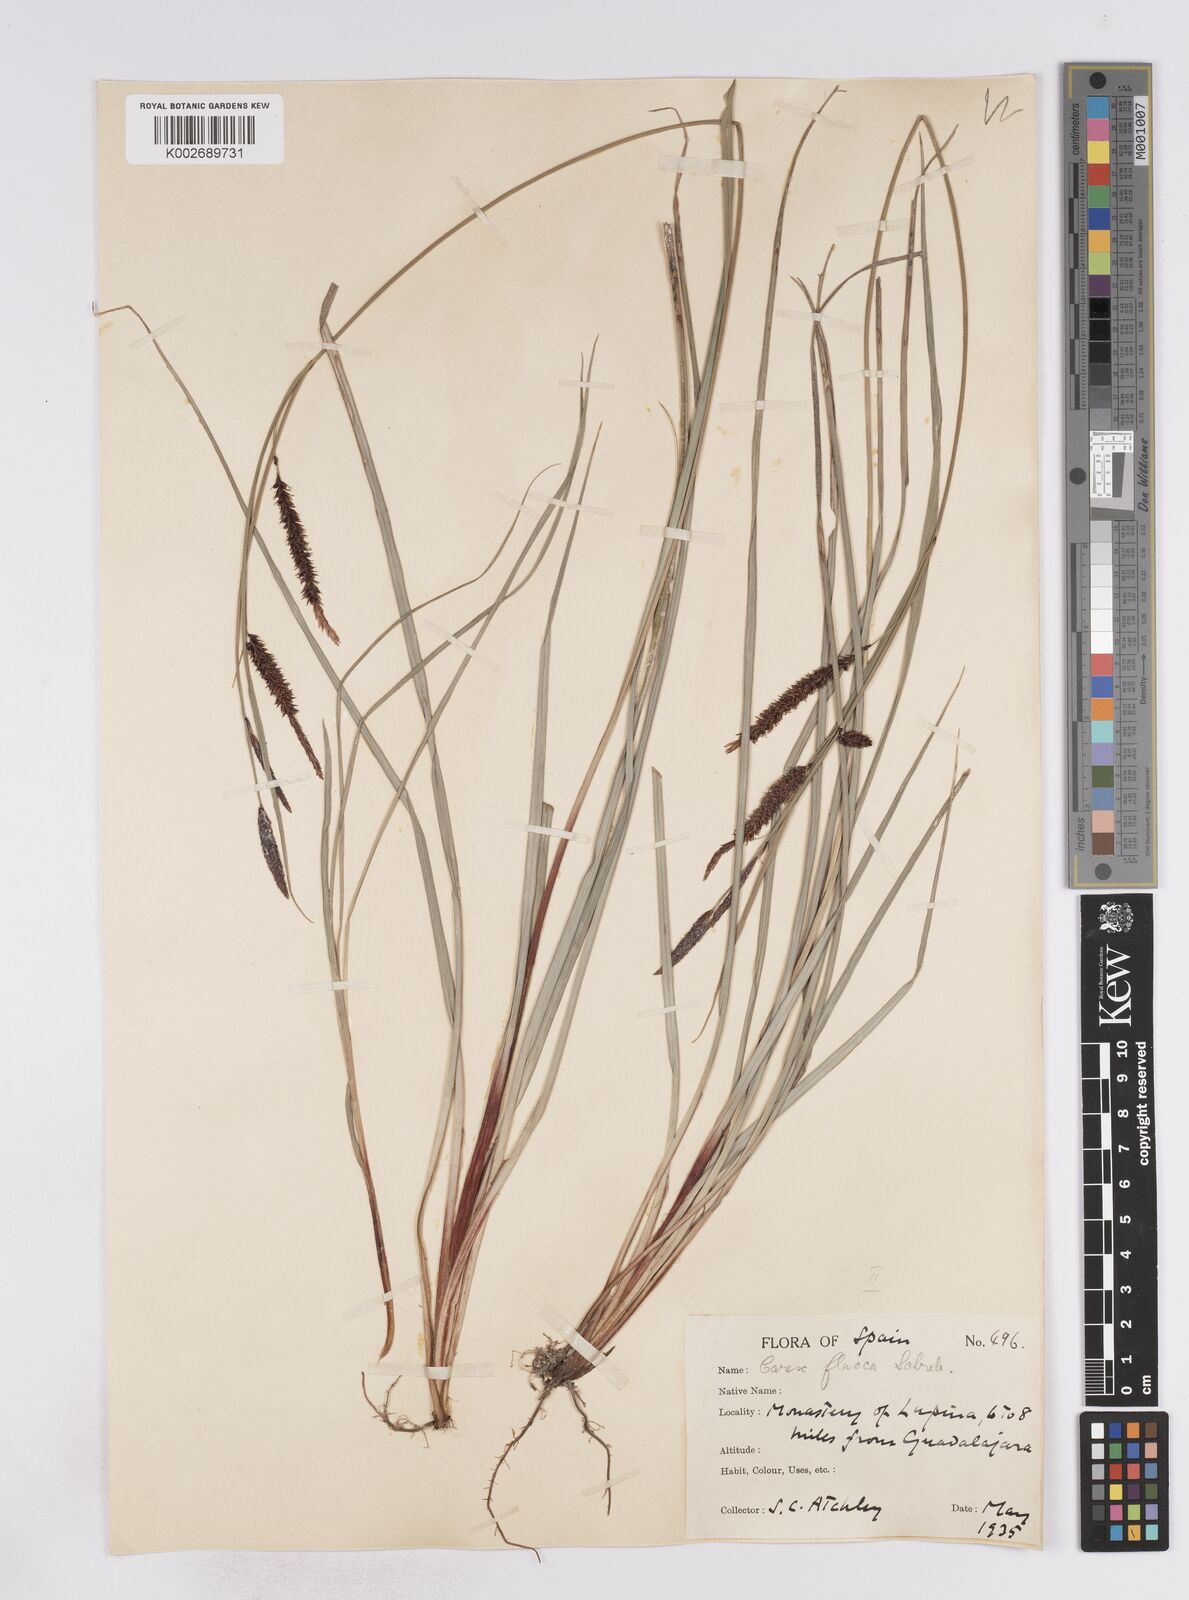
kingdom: Plantae
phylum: Tracheophyta
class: Liliopsida
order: Poales
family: Cyperaceae
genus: Carex
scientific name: Carex flacca
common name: Glaucous sedge
